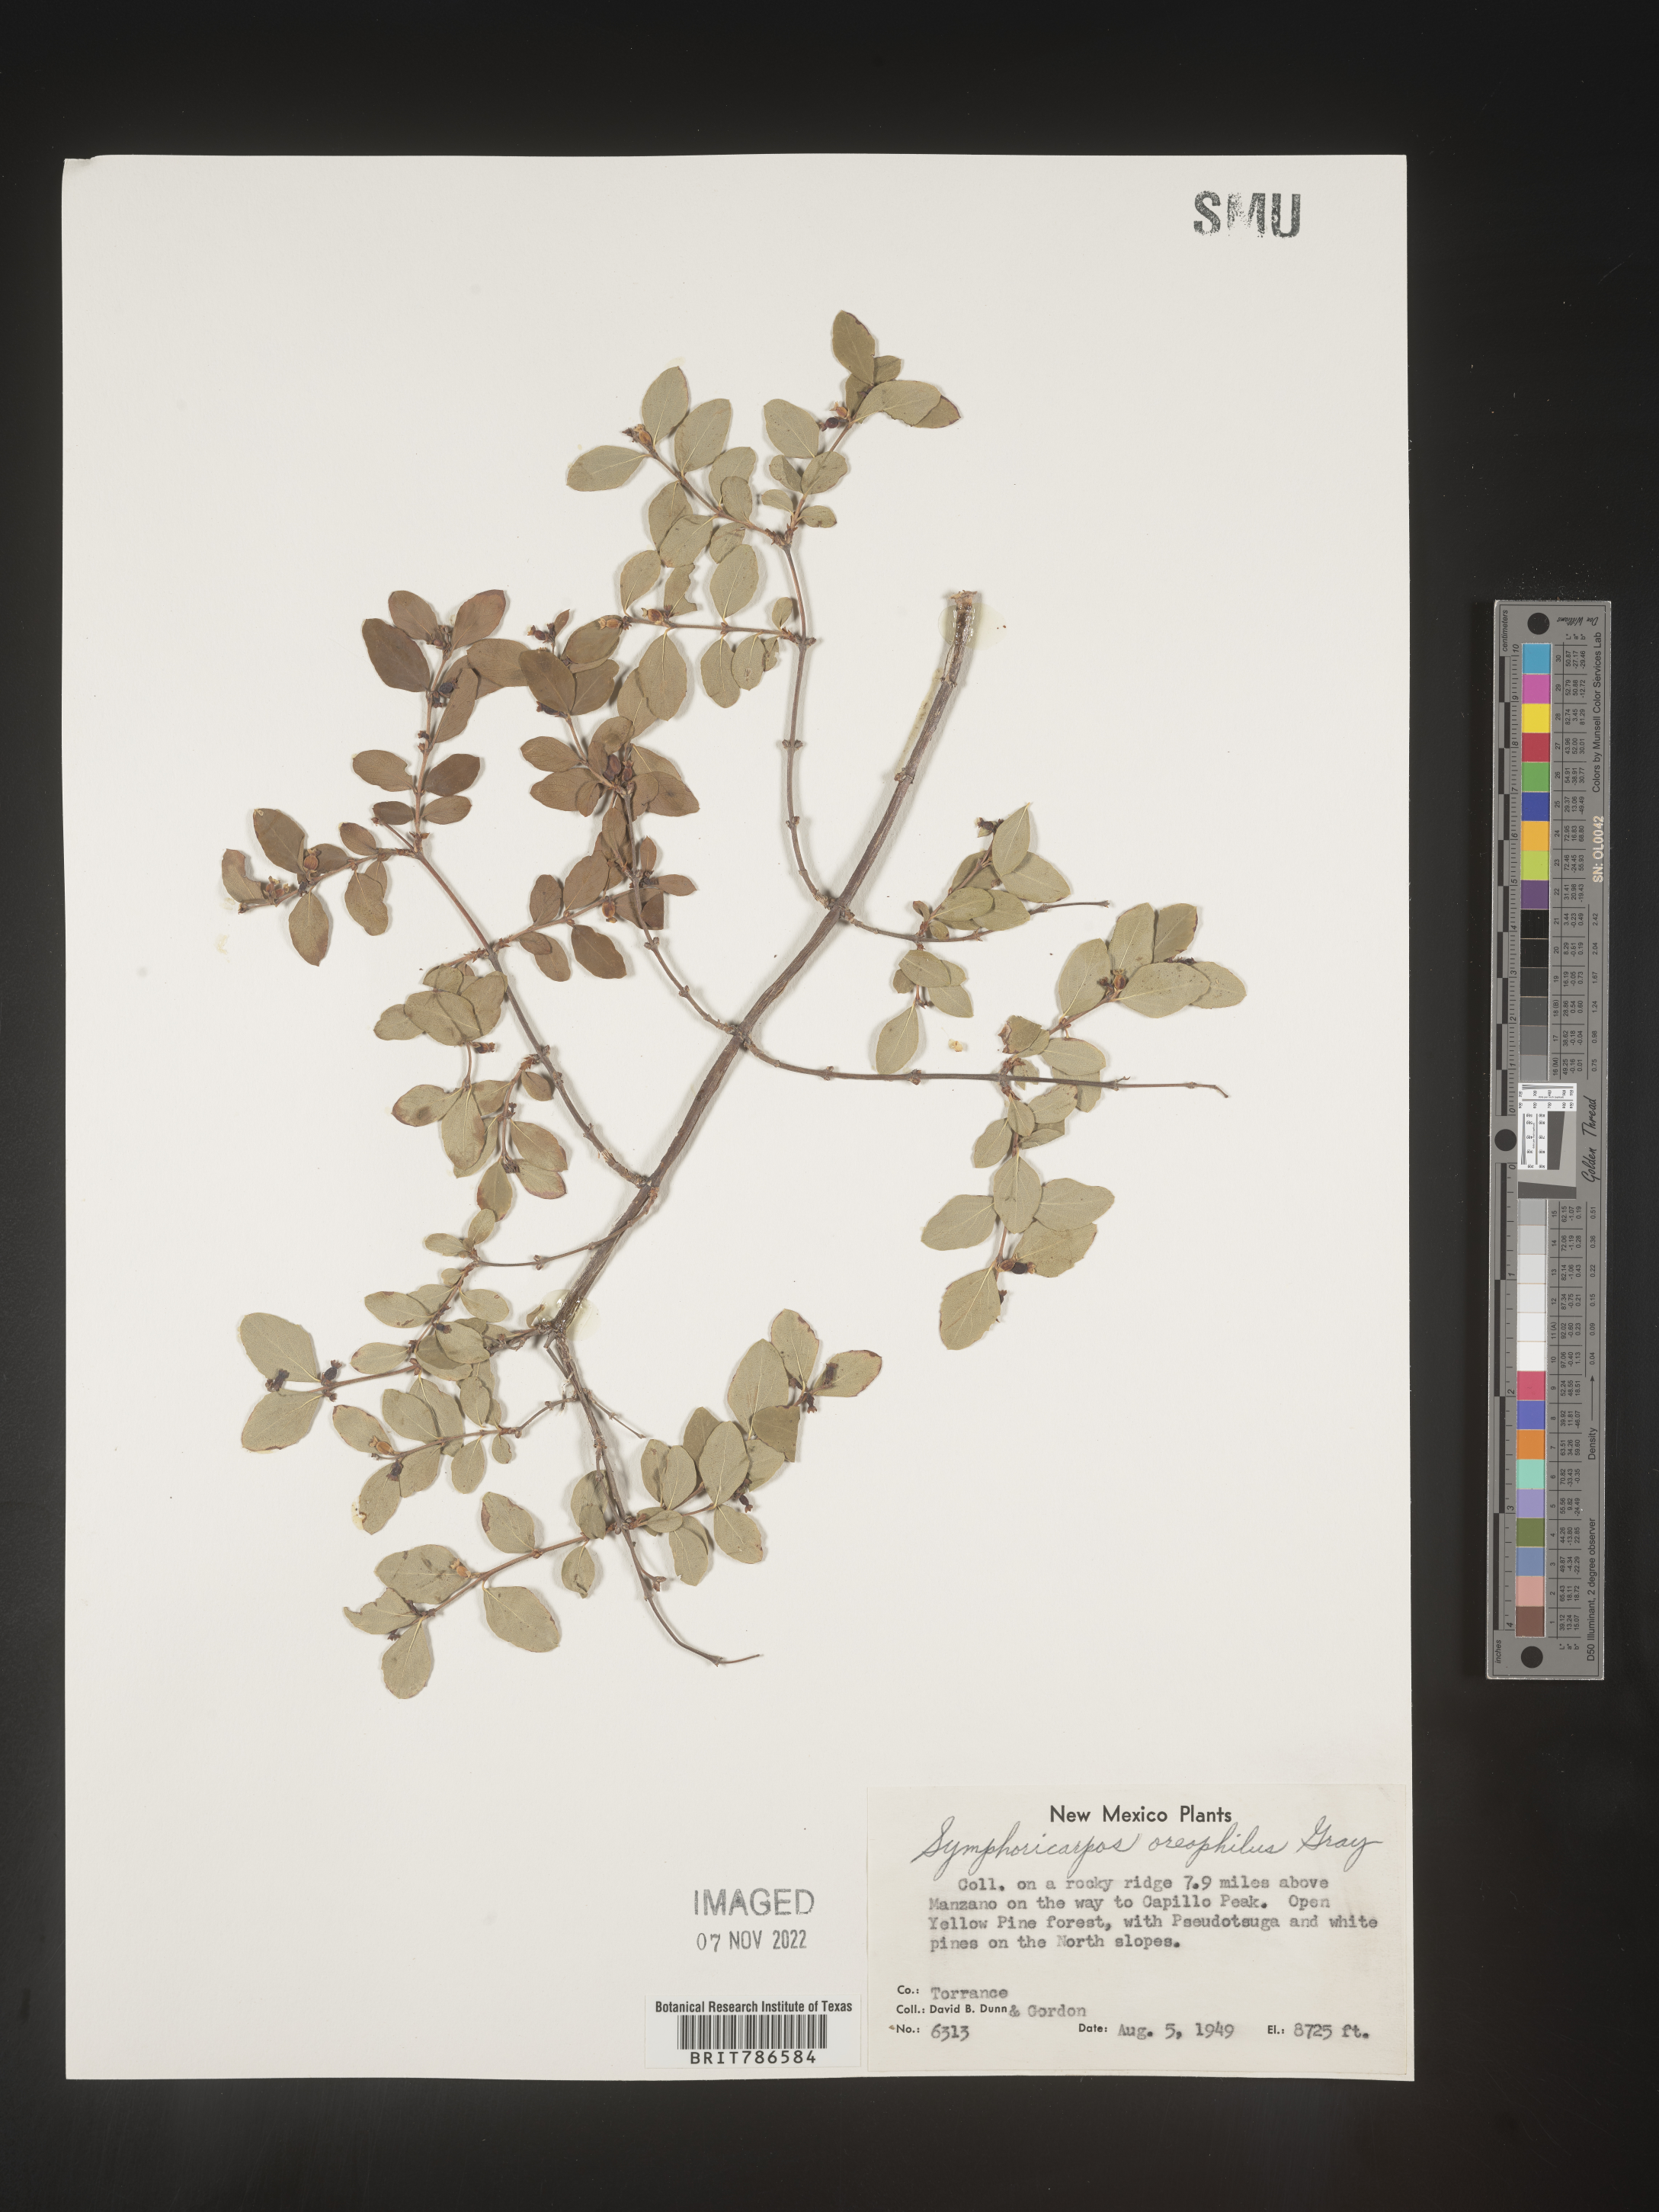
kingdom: Plantae
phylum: Tracheophyta
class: Magnoliopsida
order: Dipsacales
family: Caprifoliaceae
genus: Symphoricarpos
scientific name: Symphoricarpos oreophilus
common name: Mountain snowberry
